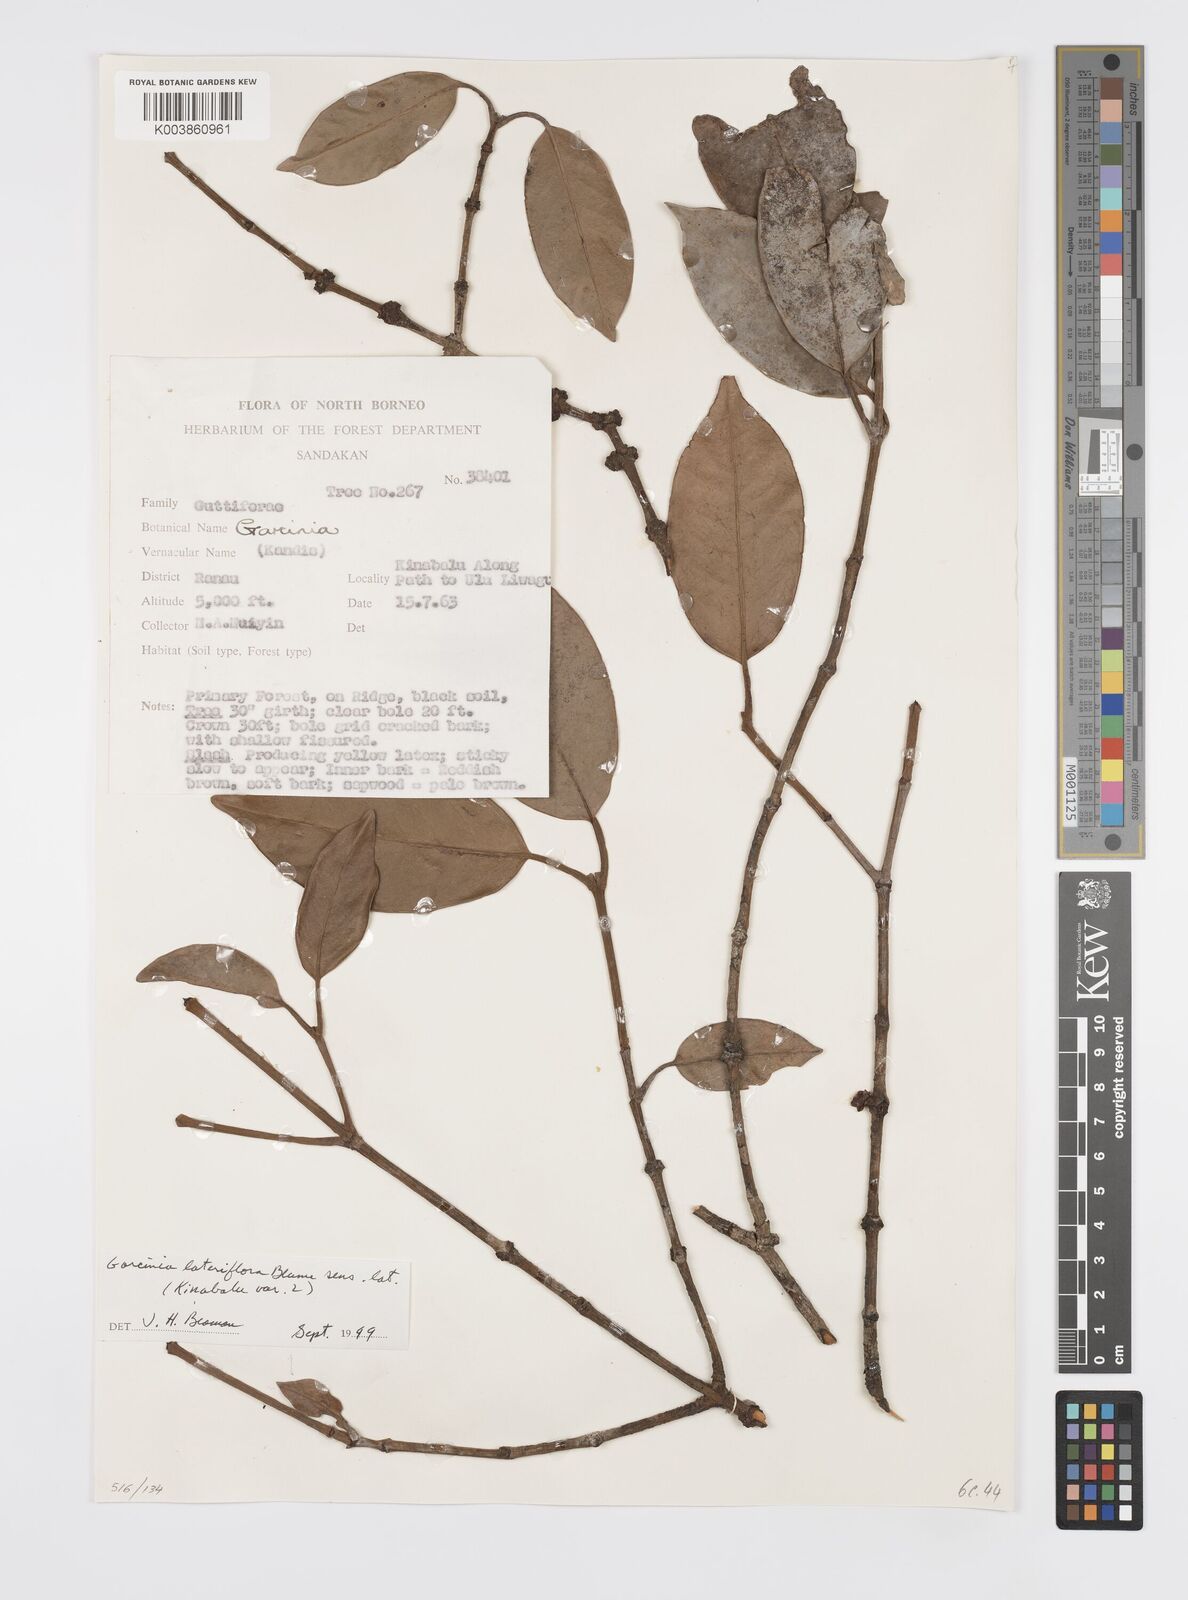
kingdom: Plantae
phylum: Tracheophyta
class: Magnoliopsida
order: Malpighiales
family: Clusiaceae
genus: Garcinia
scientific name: Garcinia lateriflora
